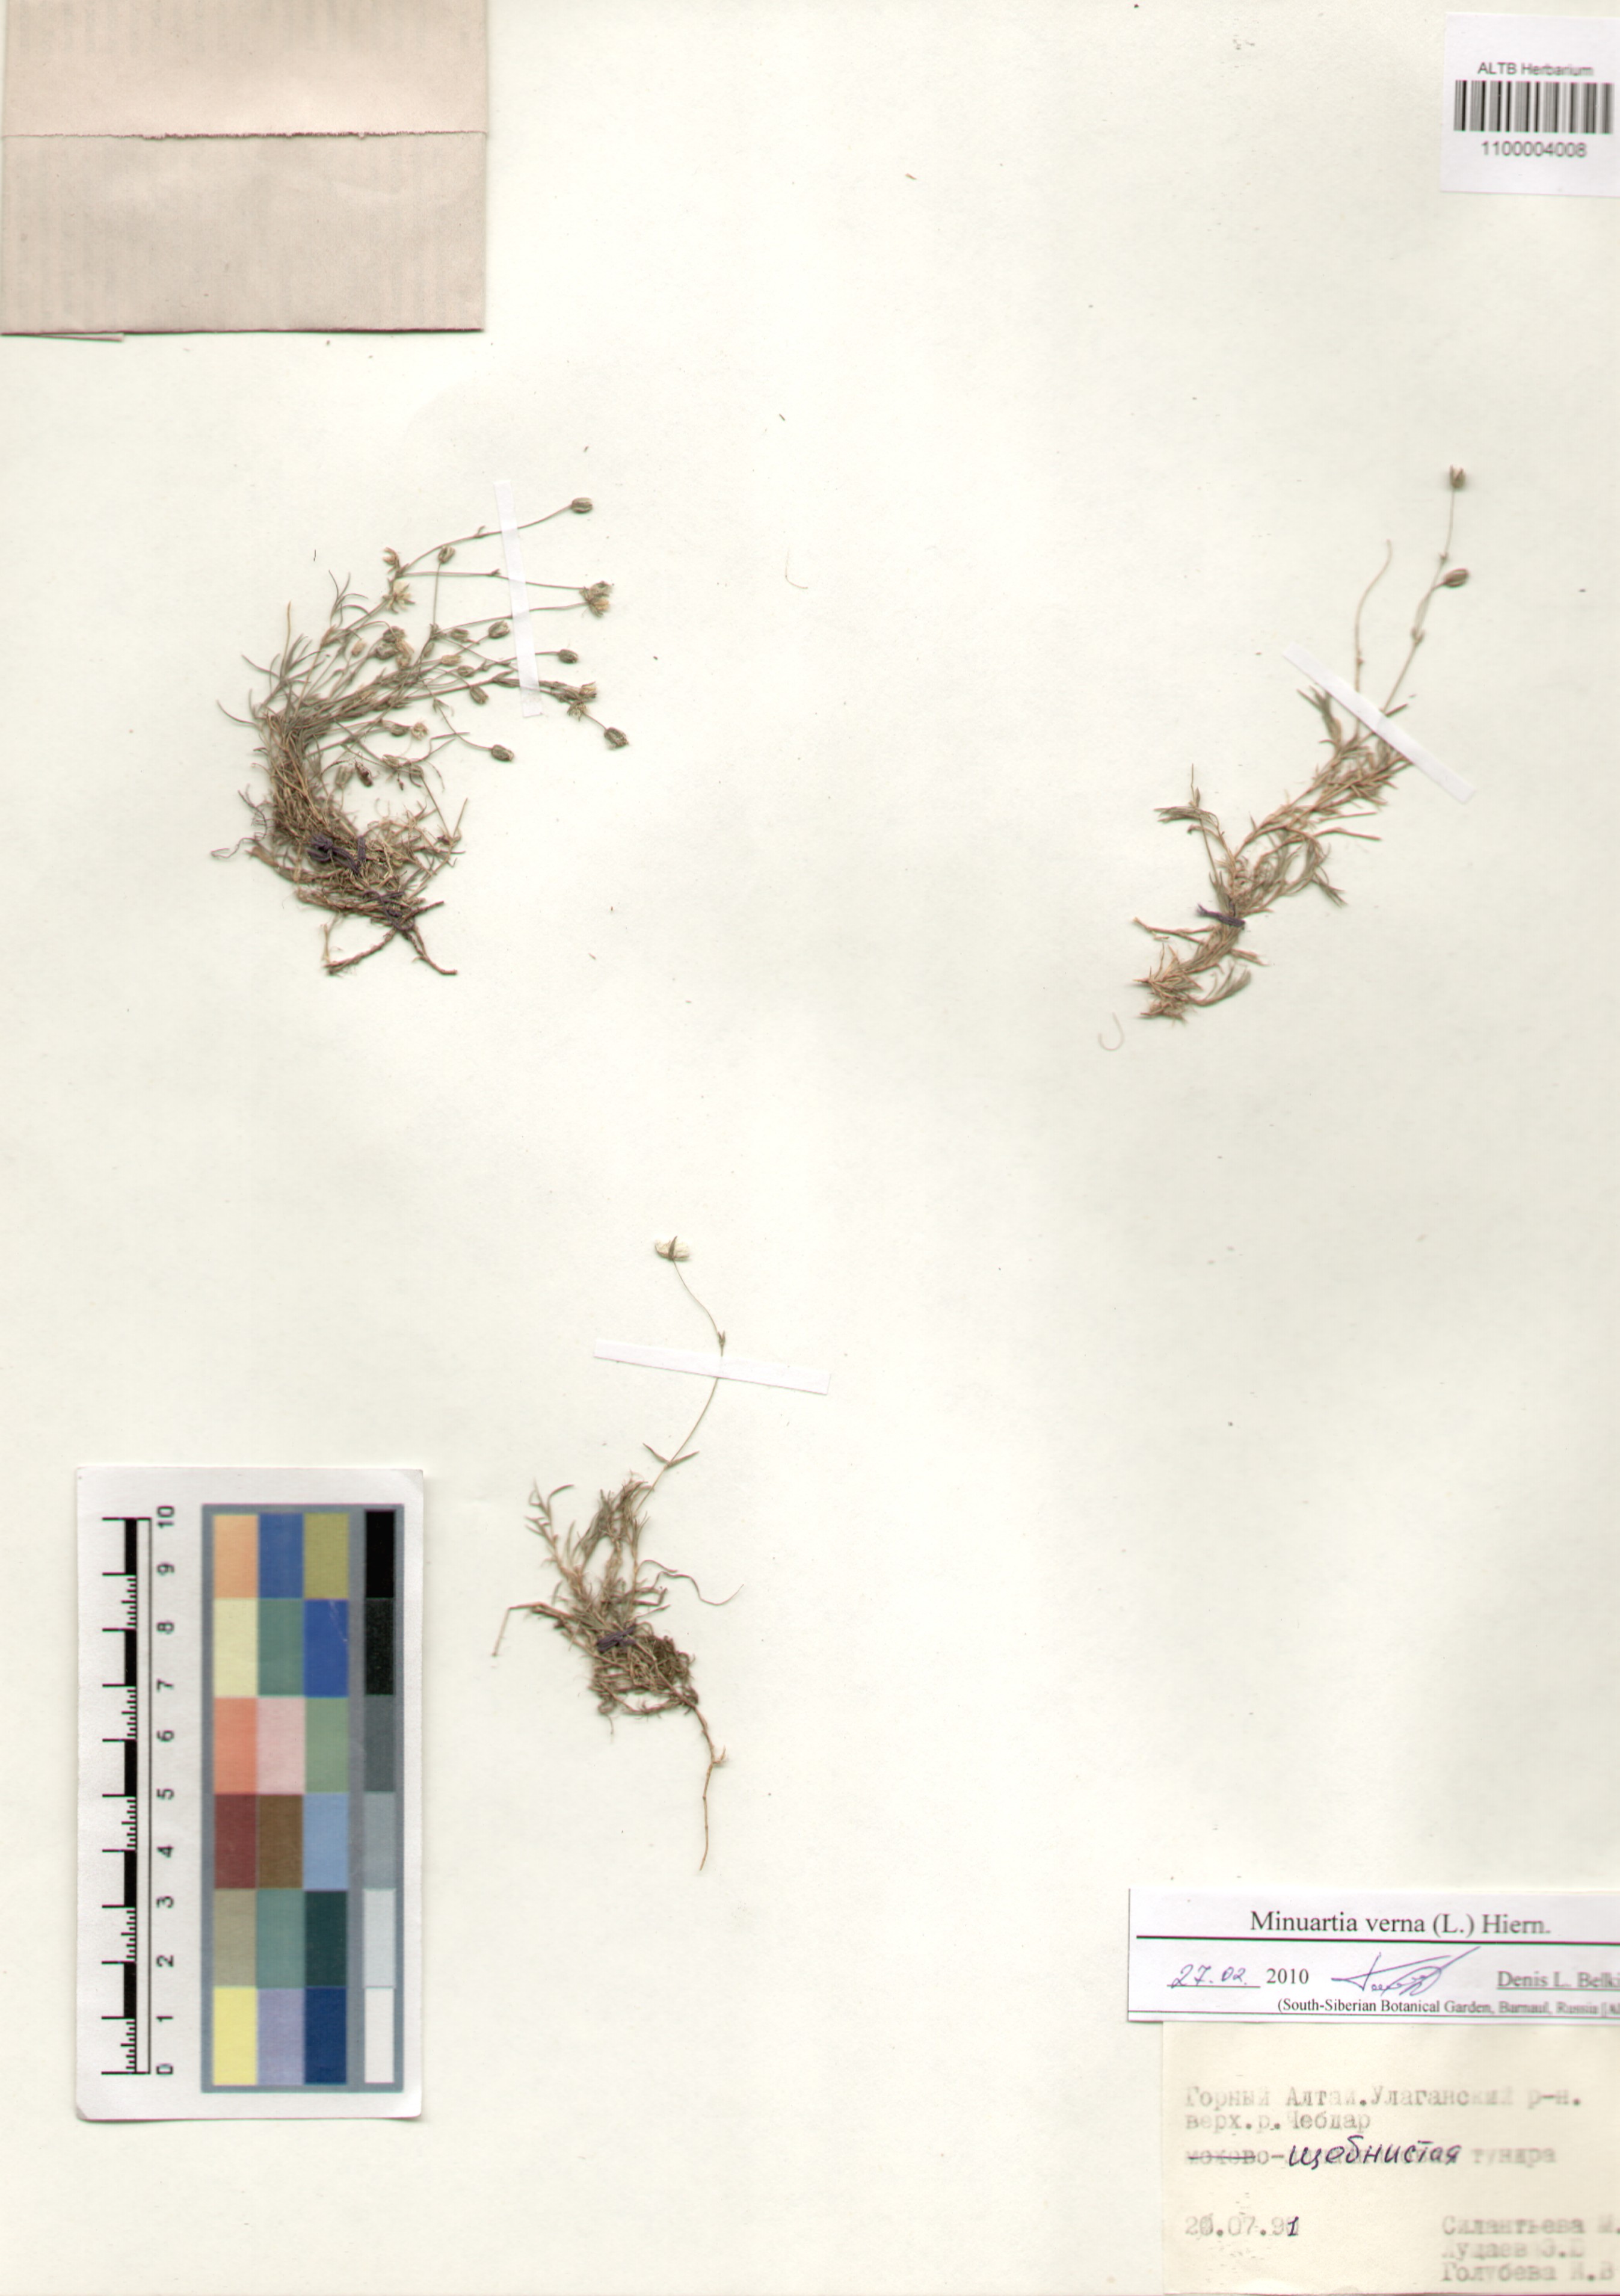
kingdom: Plantae
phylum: Tracheophyta
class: Magnoliopsida
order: Caryophyllales
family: Caryophyllaceae
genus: Sabulina
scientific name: Sabulina verna
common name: Spring sandwort
